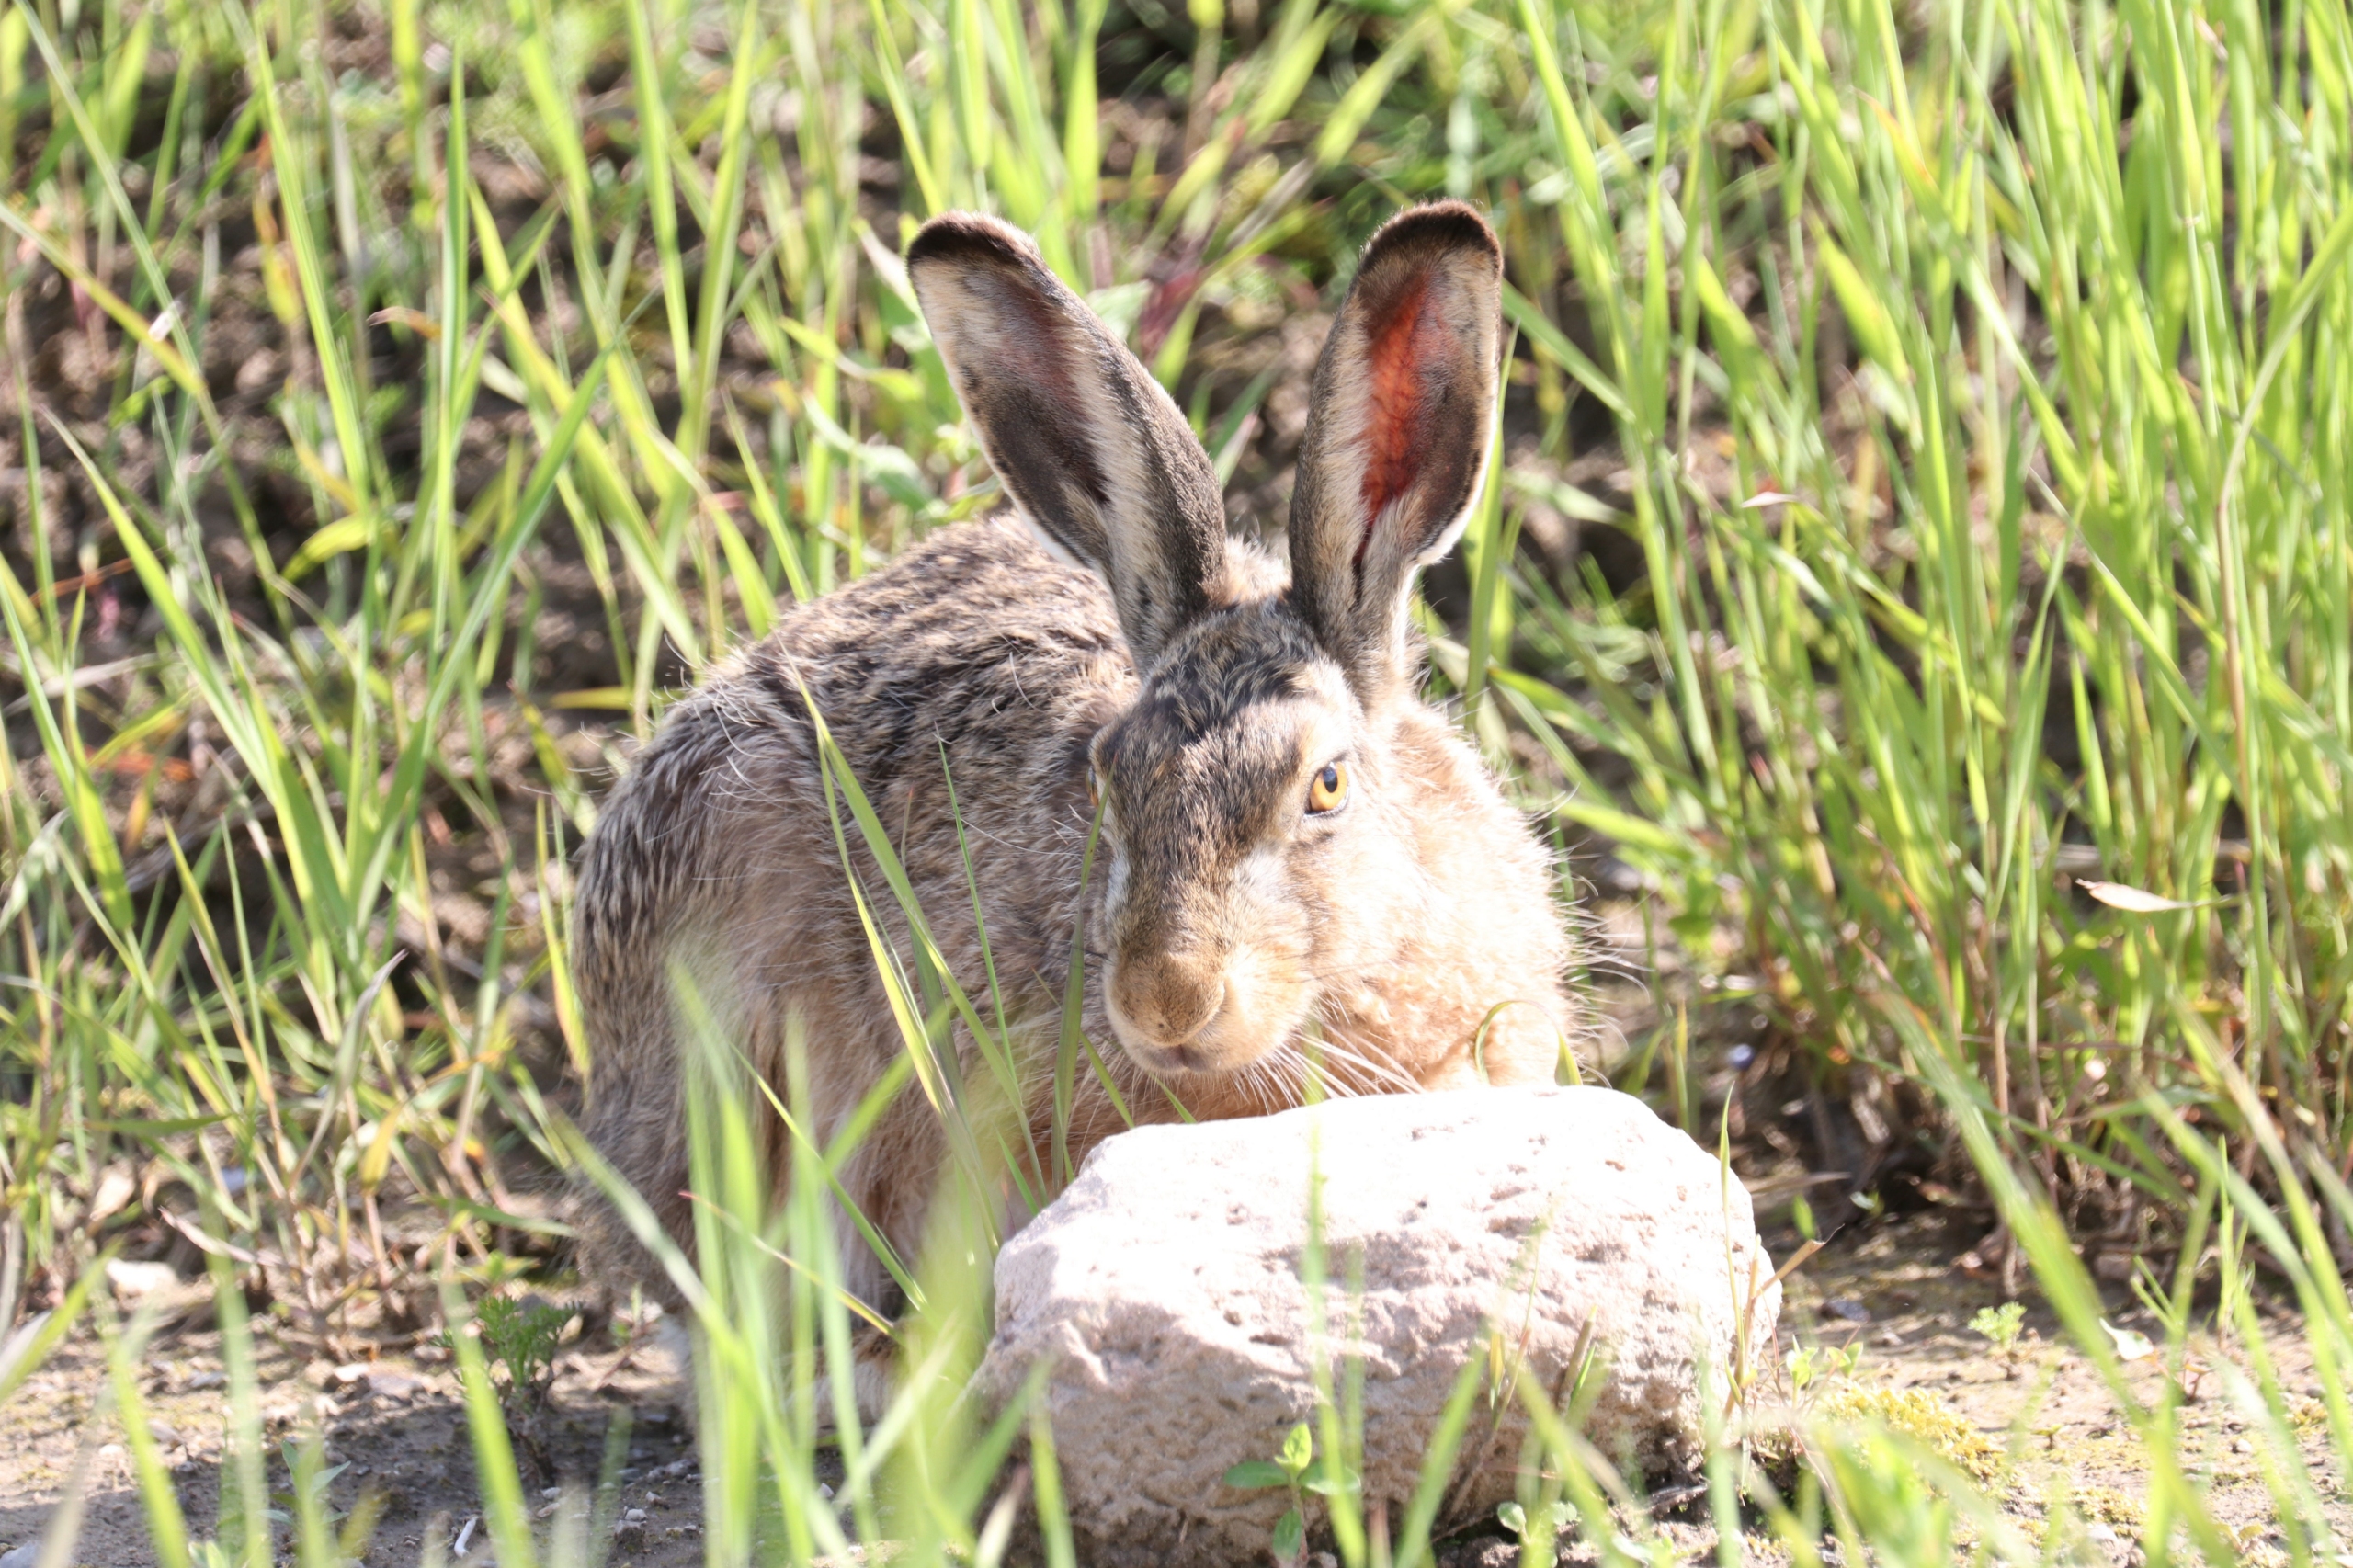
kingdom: Animalia
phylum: Chordata
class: Mammalia
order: Lagomorpha
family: Leporidae
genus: Lepus
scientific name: Lepus europaeus
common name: Hare
